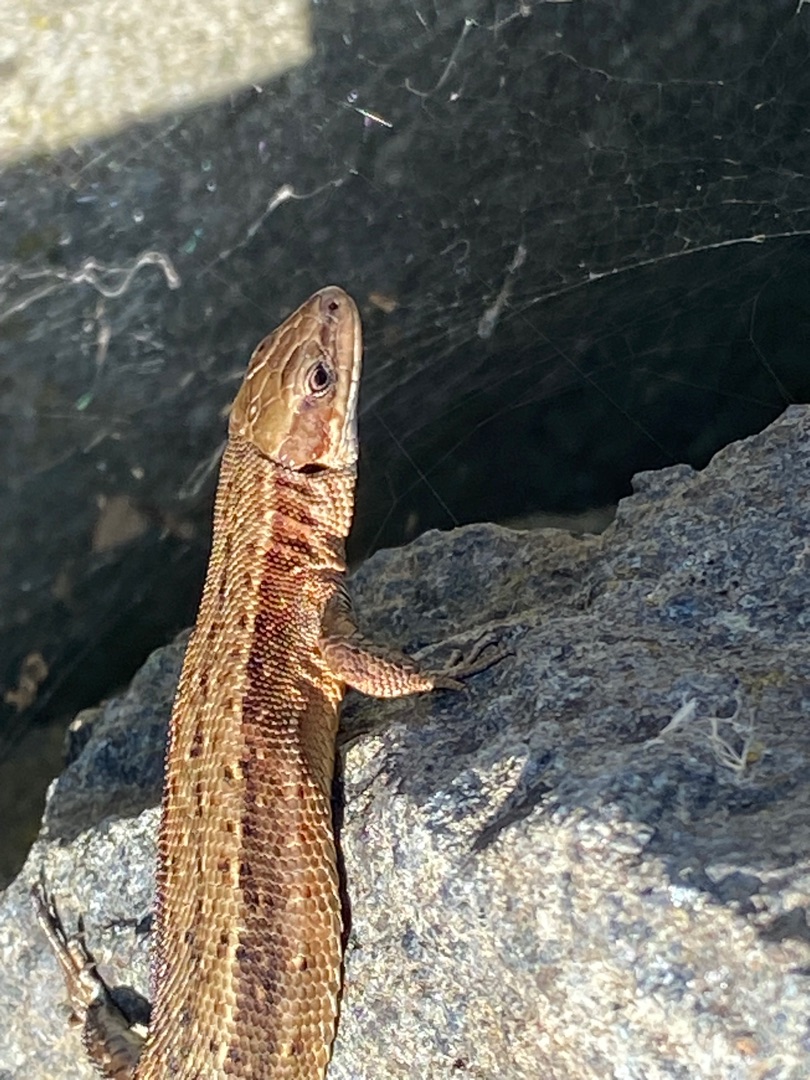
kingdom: Animalia
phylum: Chordata
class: Squamata
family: Lacertidae
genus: Zootoca
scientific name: Zootoca vivipara
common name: Skovfirben
